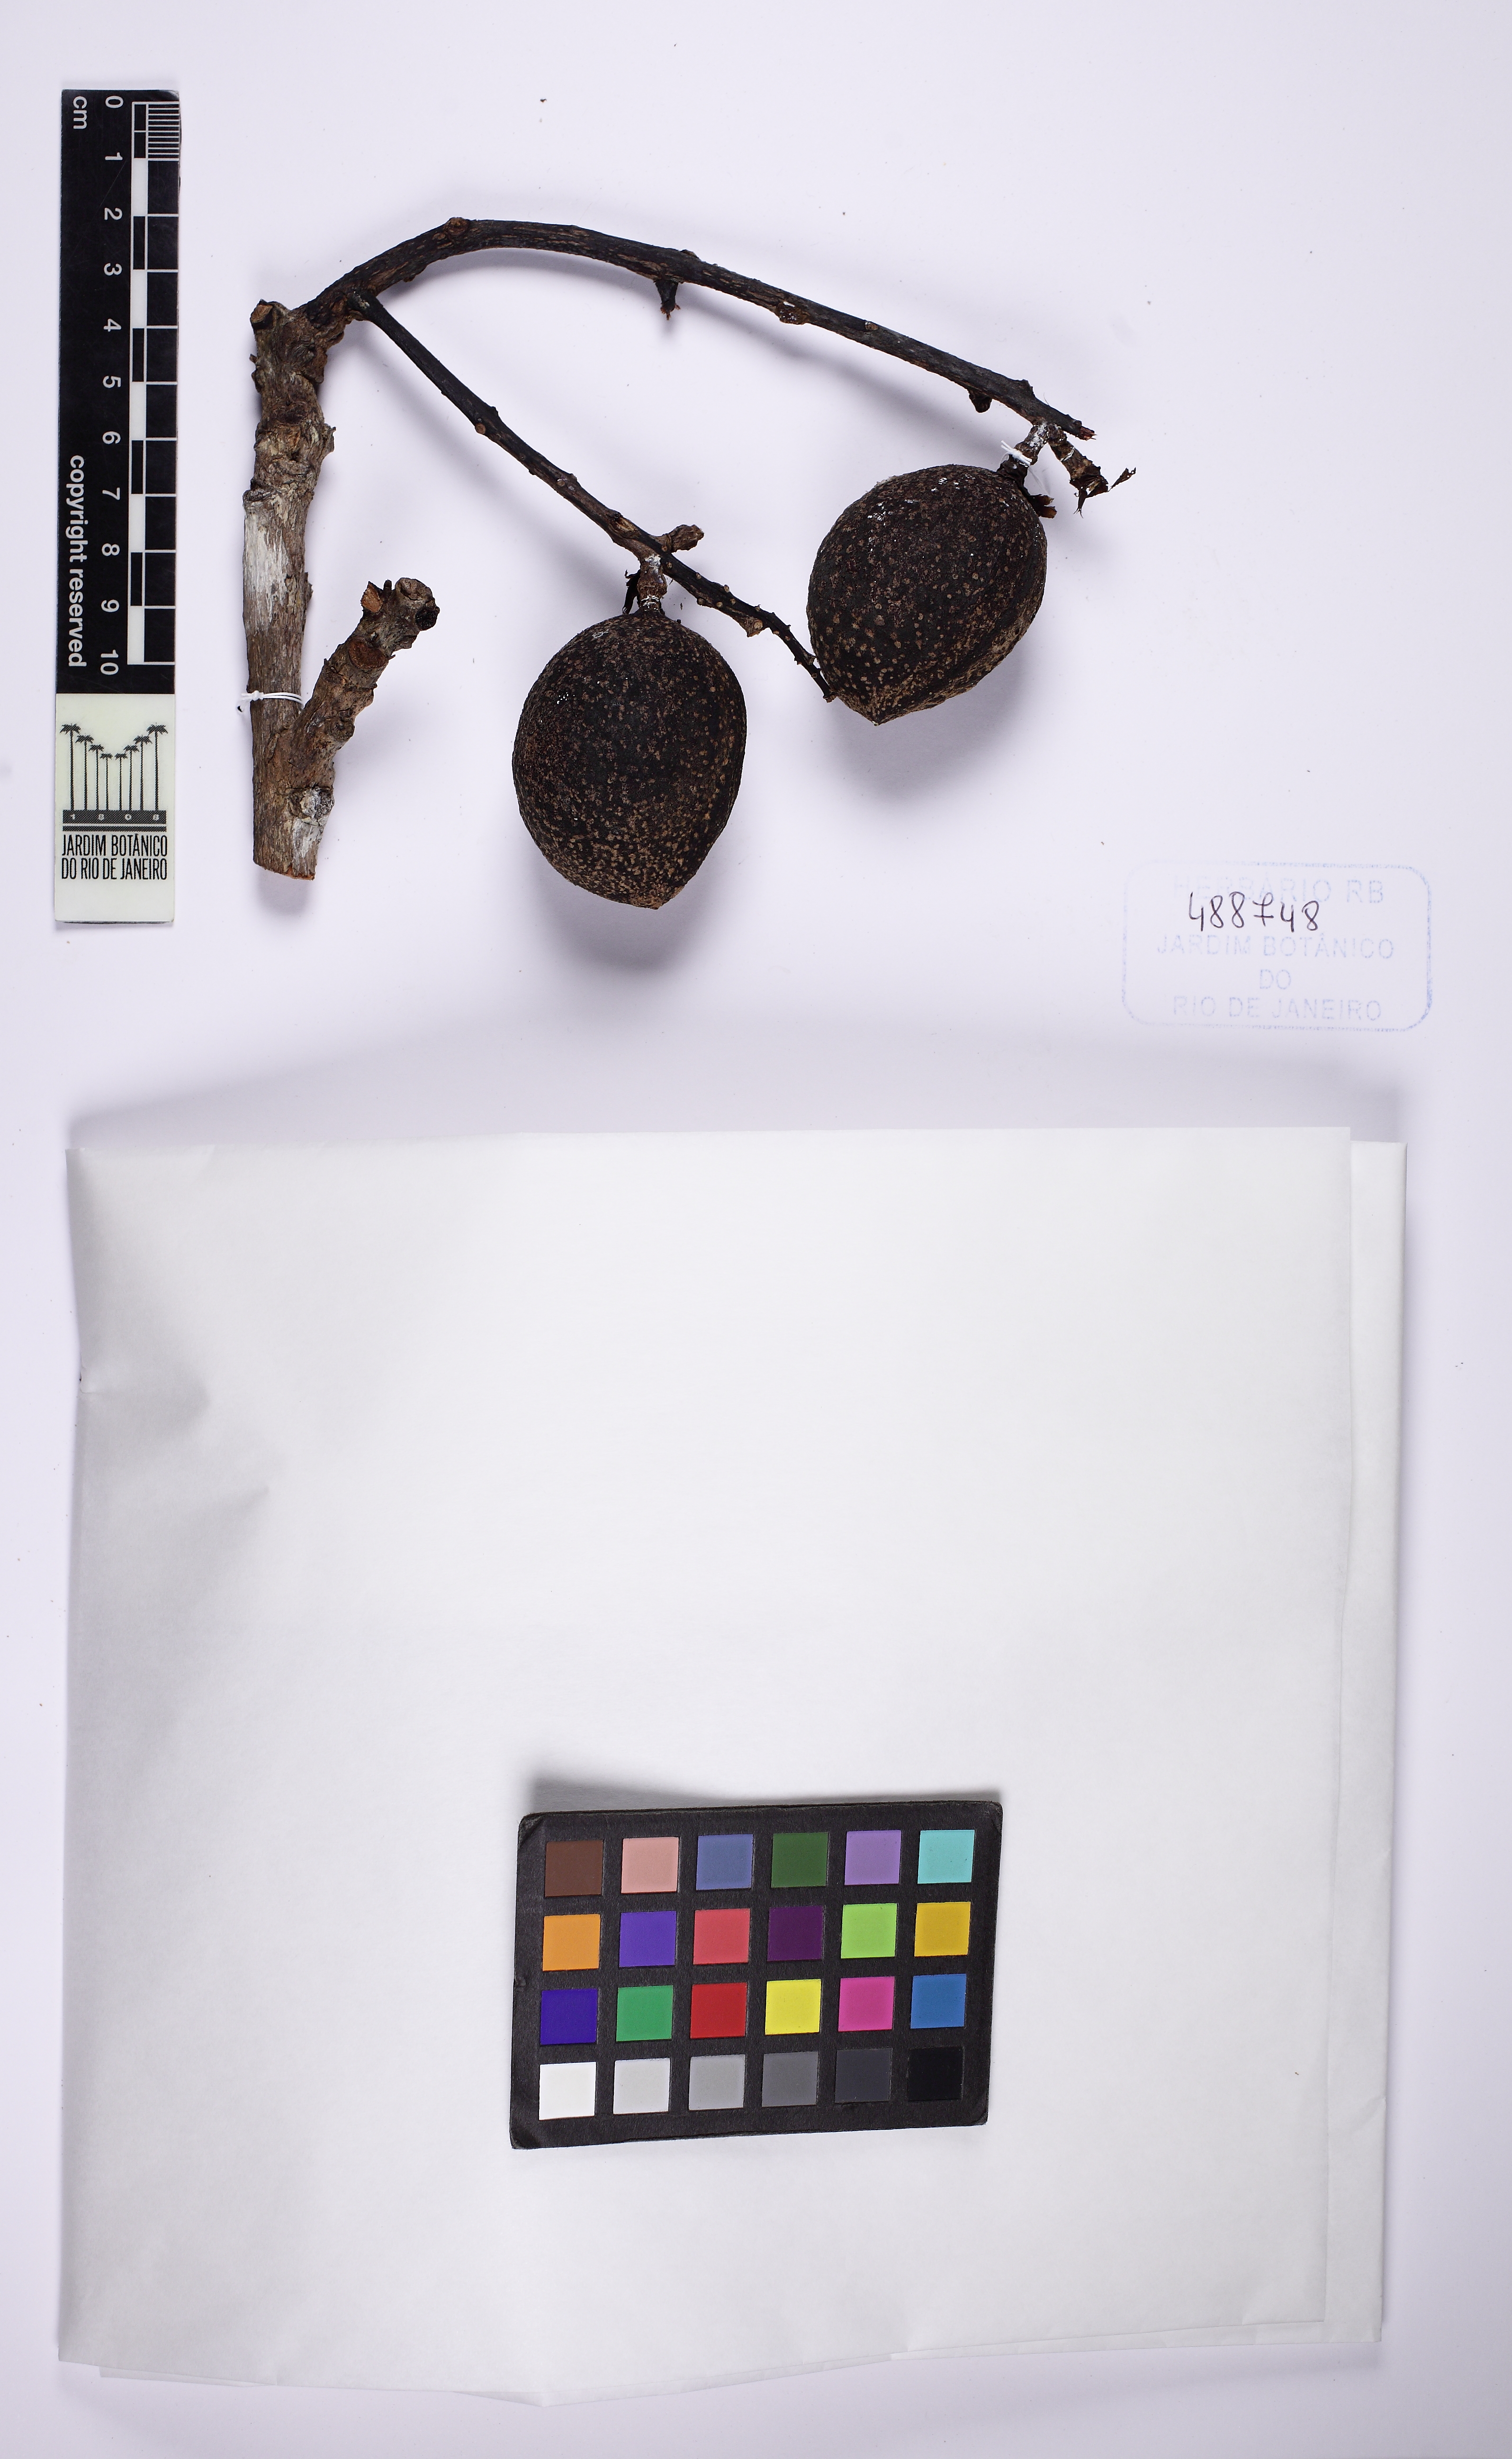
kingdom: Plantae
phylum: Tracheophyta
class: Magnoliopsida
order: Fabales
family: Fabaceae
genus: Andira
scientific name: Andira carvalhoi
